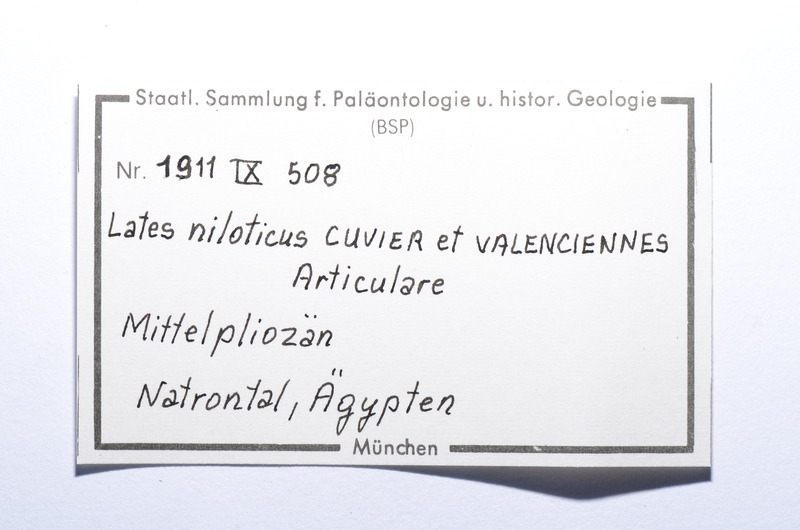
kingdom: Animalia
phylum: Chordata
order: Perciformes
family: Latidae
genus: Lates
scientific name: Lates niloticus
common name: Nile perch
